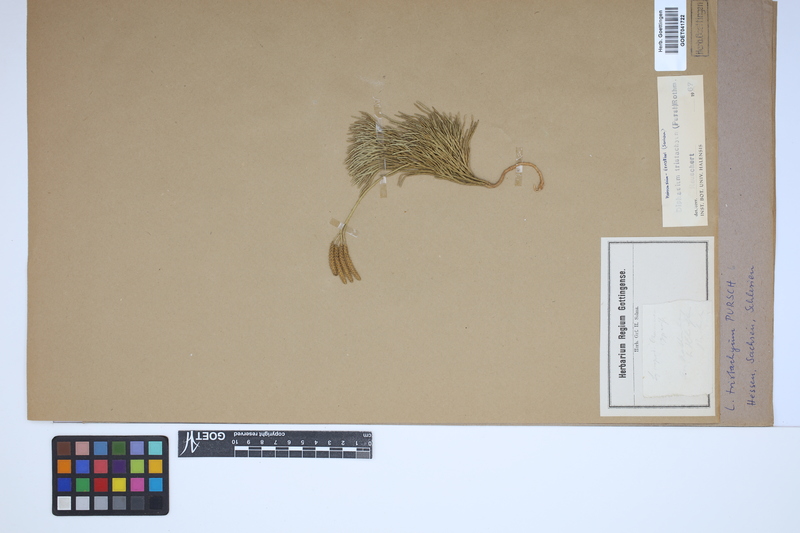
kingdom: Plantae
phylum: Tracheophyta
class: Lycopodiopsida
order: Lycopodiales
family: Lycopodiaceae
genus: Diphasiastrum
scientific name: Diphasiastrum tristachyum
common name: Blue ground-cedar
